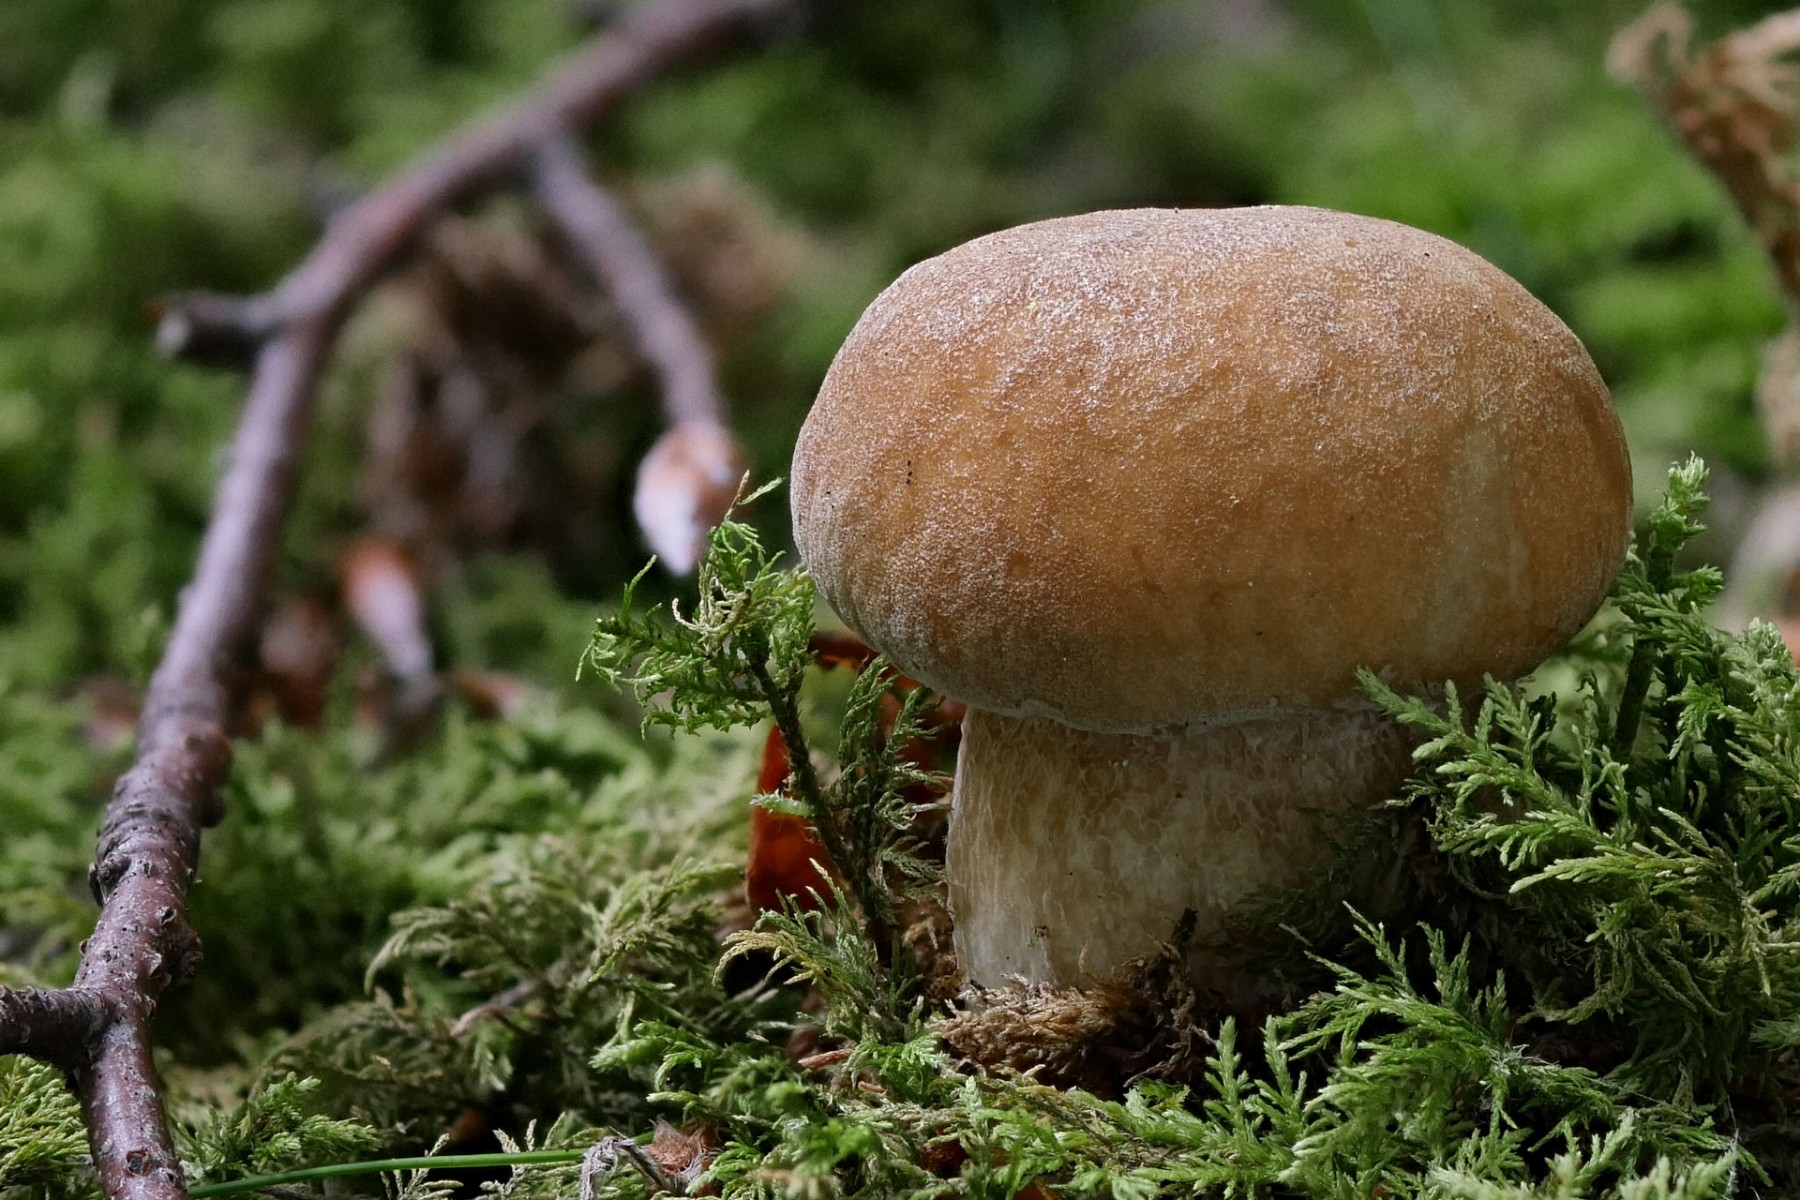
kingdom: Fungi
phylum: Basidiomycota
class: Agaricomycetes
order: Boletales
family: Boletaceae
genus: Boletus
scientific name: Boletus reticulatus
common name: sommer-rørhat
